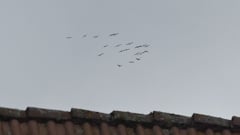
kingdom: Animalia
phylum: Chordata
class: Aves
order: Gruiformes
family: Gruidae
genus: Grus
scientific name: Grus grus
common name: Common crane
